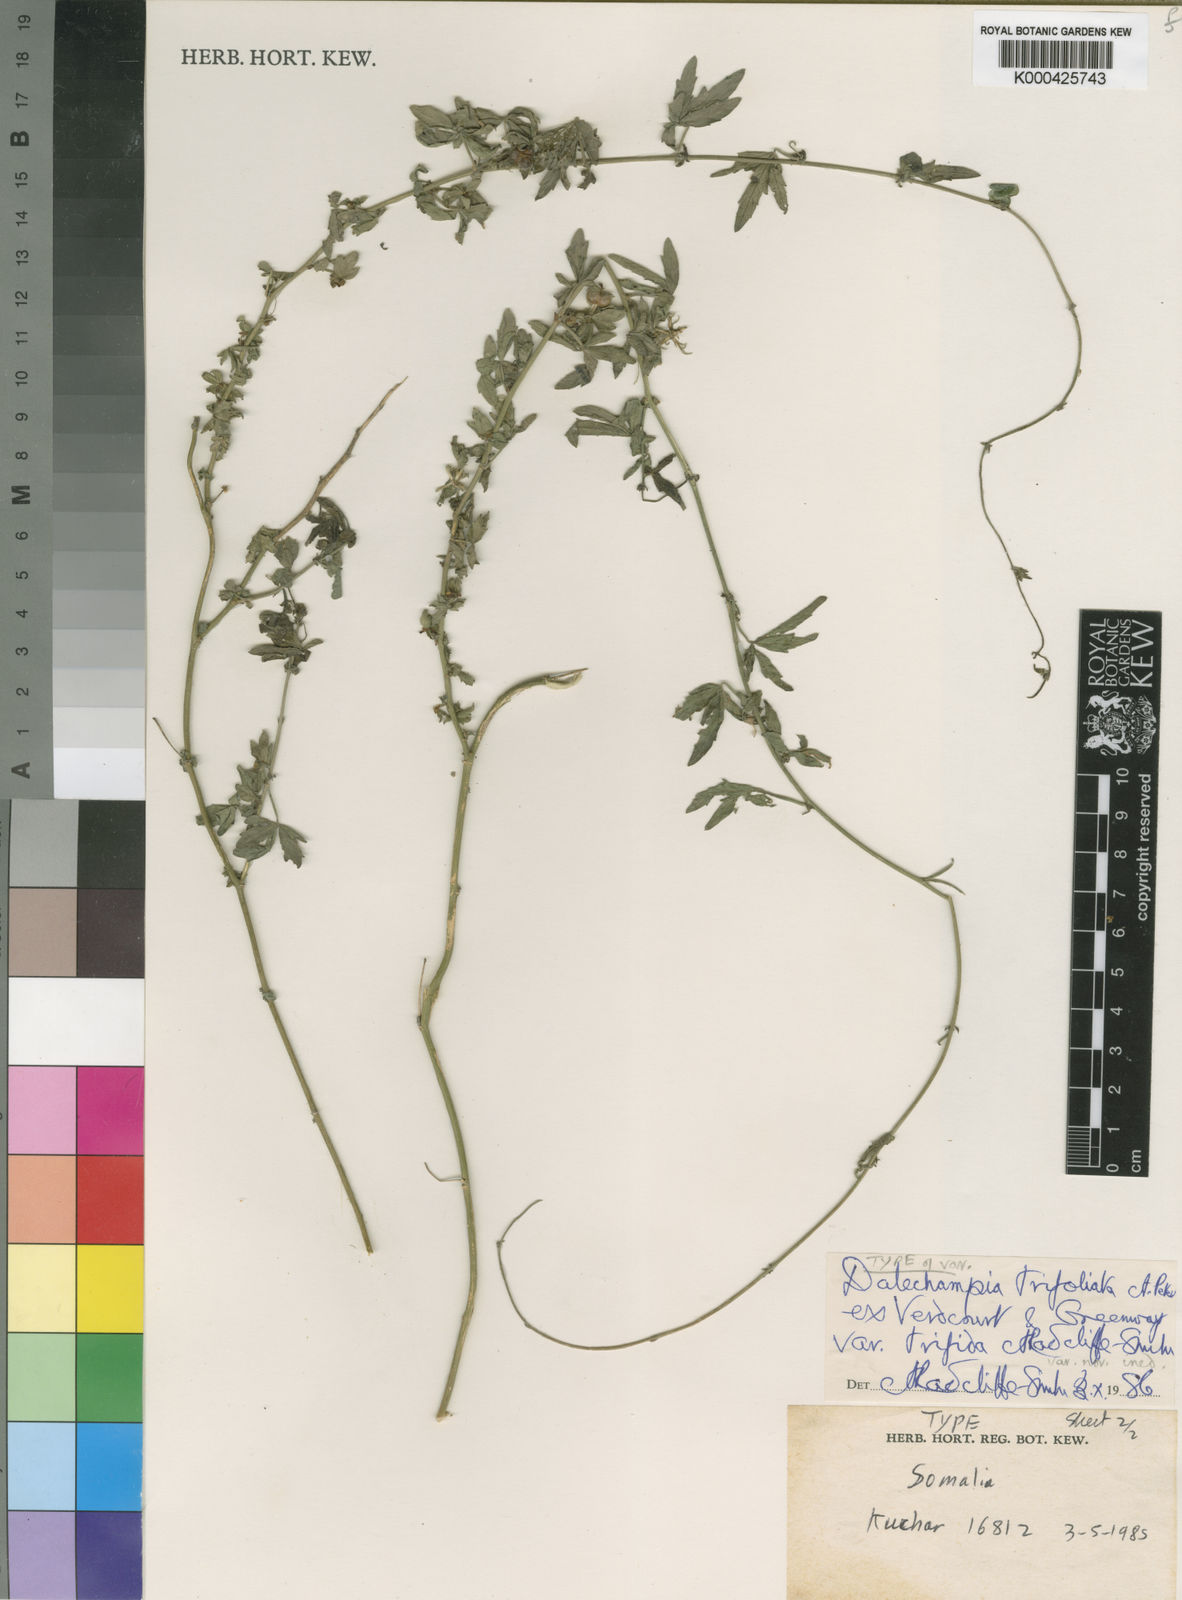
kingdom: Plantae
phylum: Tracheophyta
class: Magnoliopsida
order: Malpighiales
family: Euphorbiaceae
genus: Dalechampia
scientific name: Dalechampia trifoliata
